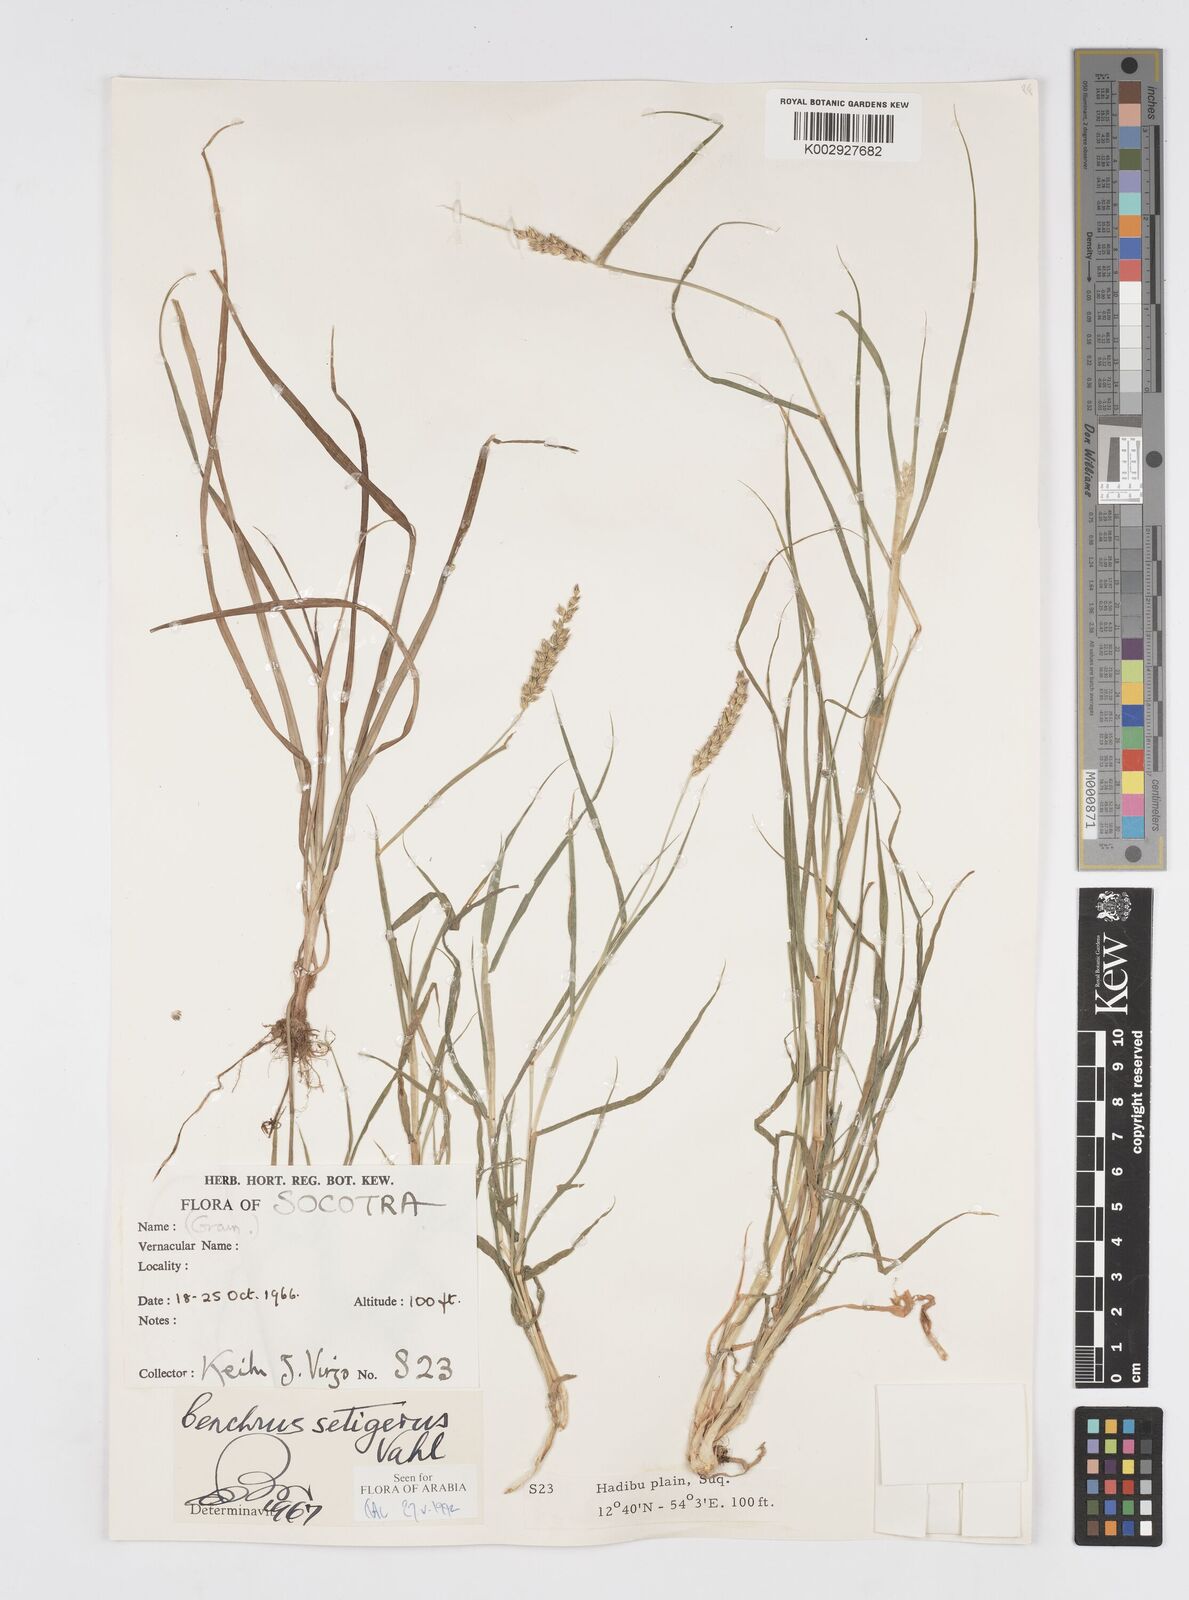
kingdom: Plantae
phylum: Tracheophyta
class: Liliopsida
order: Poales
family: Poaceae
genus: Cenchrus
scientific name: Cenchrus setigerus
